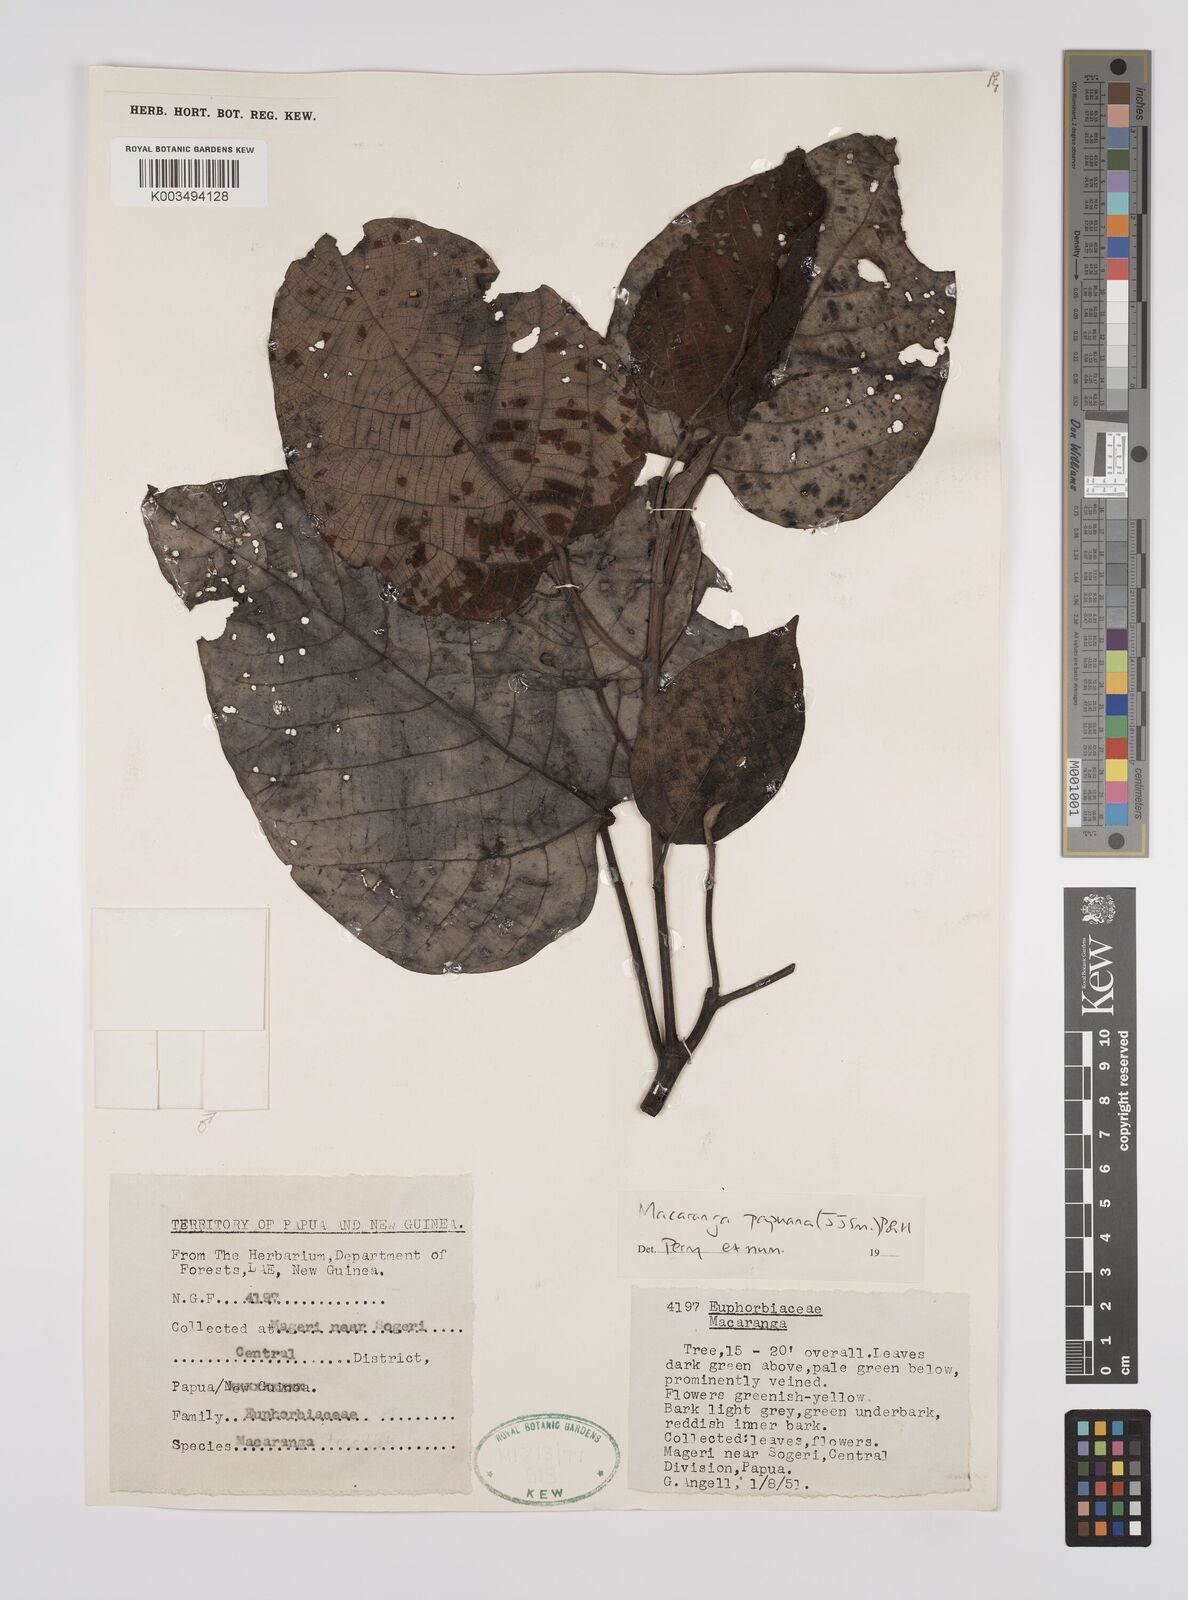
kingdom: Plantae
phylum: Tracheophyta
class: Magnoliopsida
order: Malpighiales
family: Euphorbiaceae
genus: Macaranga
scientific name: Macaranga aleuritoides
